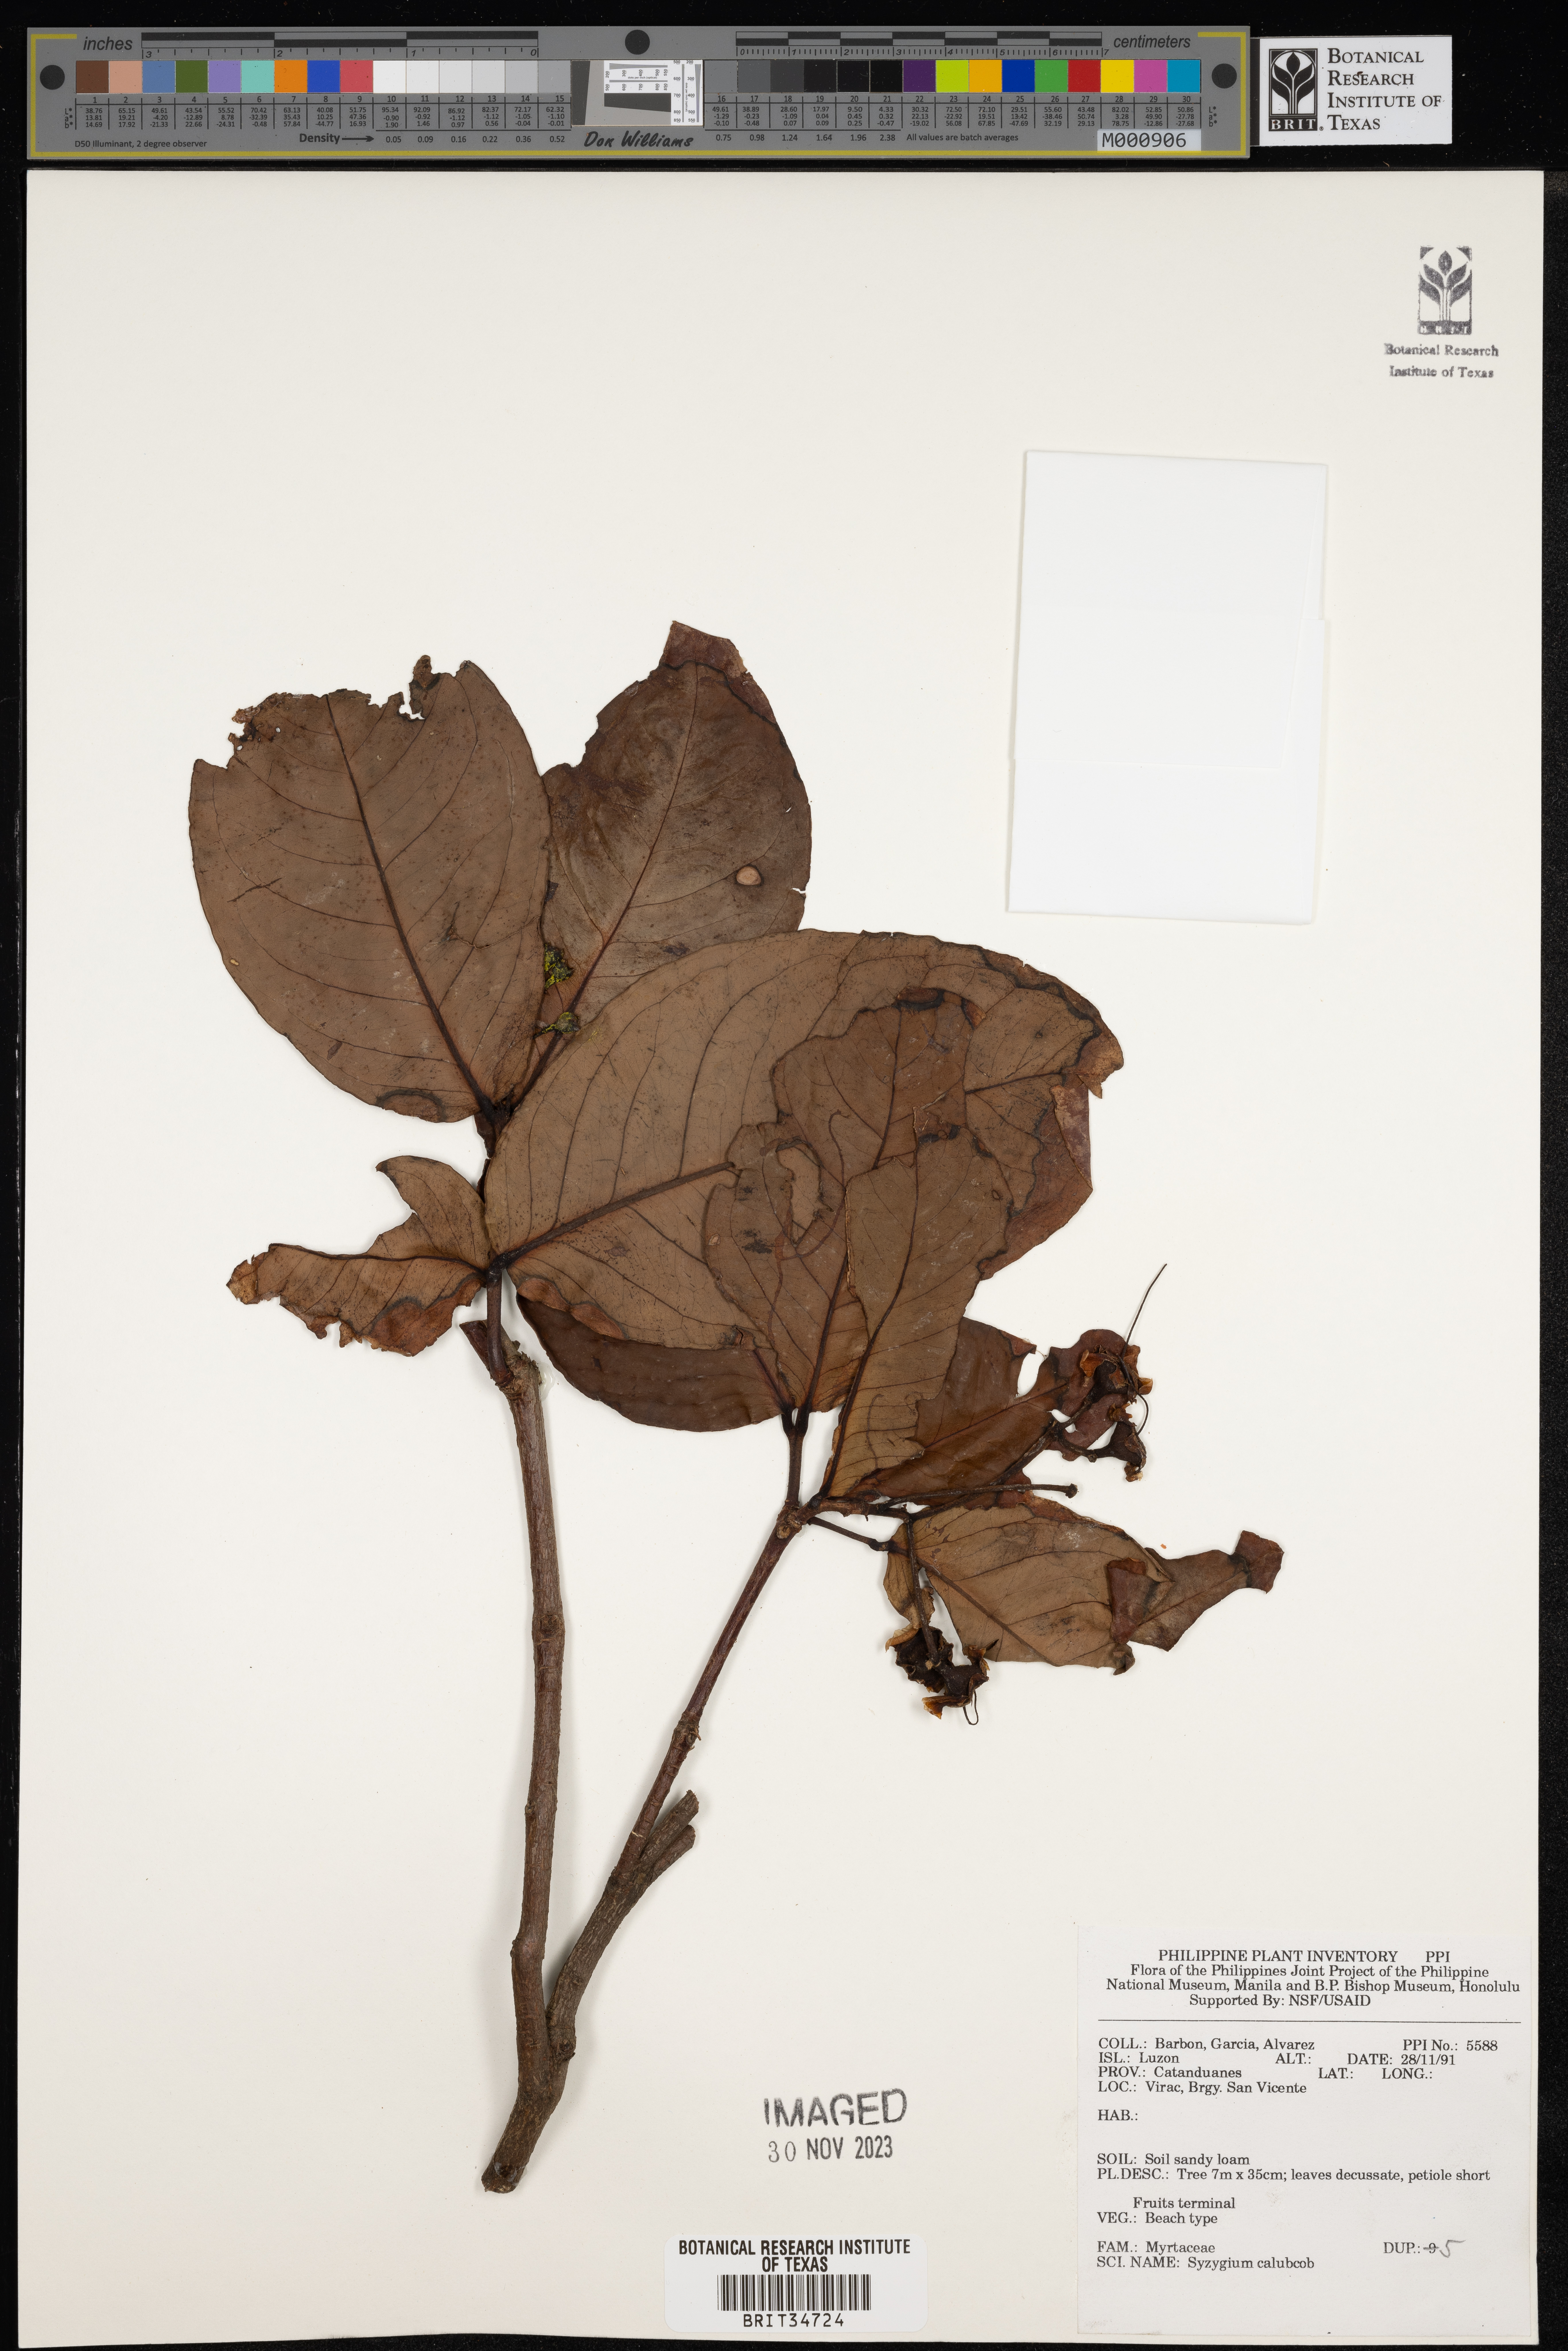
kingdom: Plantae
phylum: Tracheophyta
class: Magnoliopsida
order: Myrtales
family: Myrtaceae
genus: Syzygium
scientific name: Syzygium calubcob
